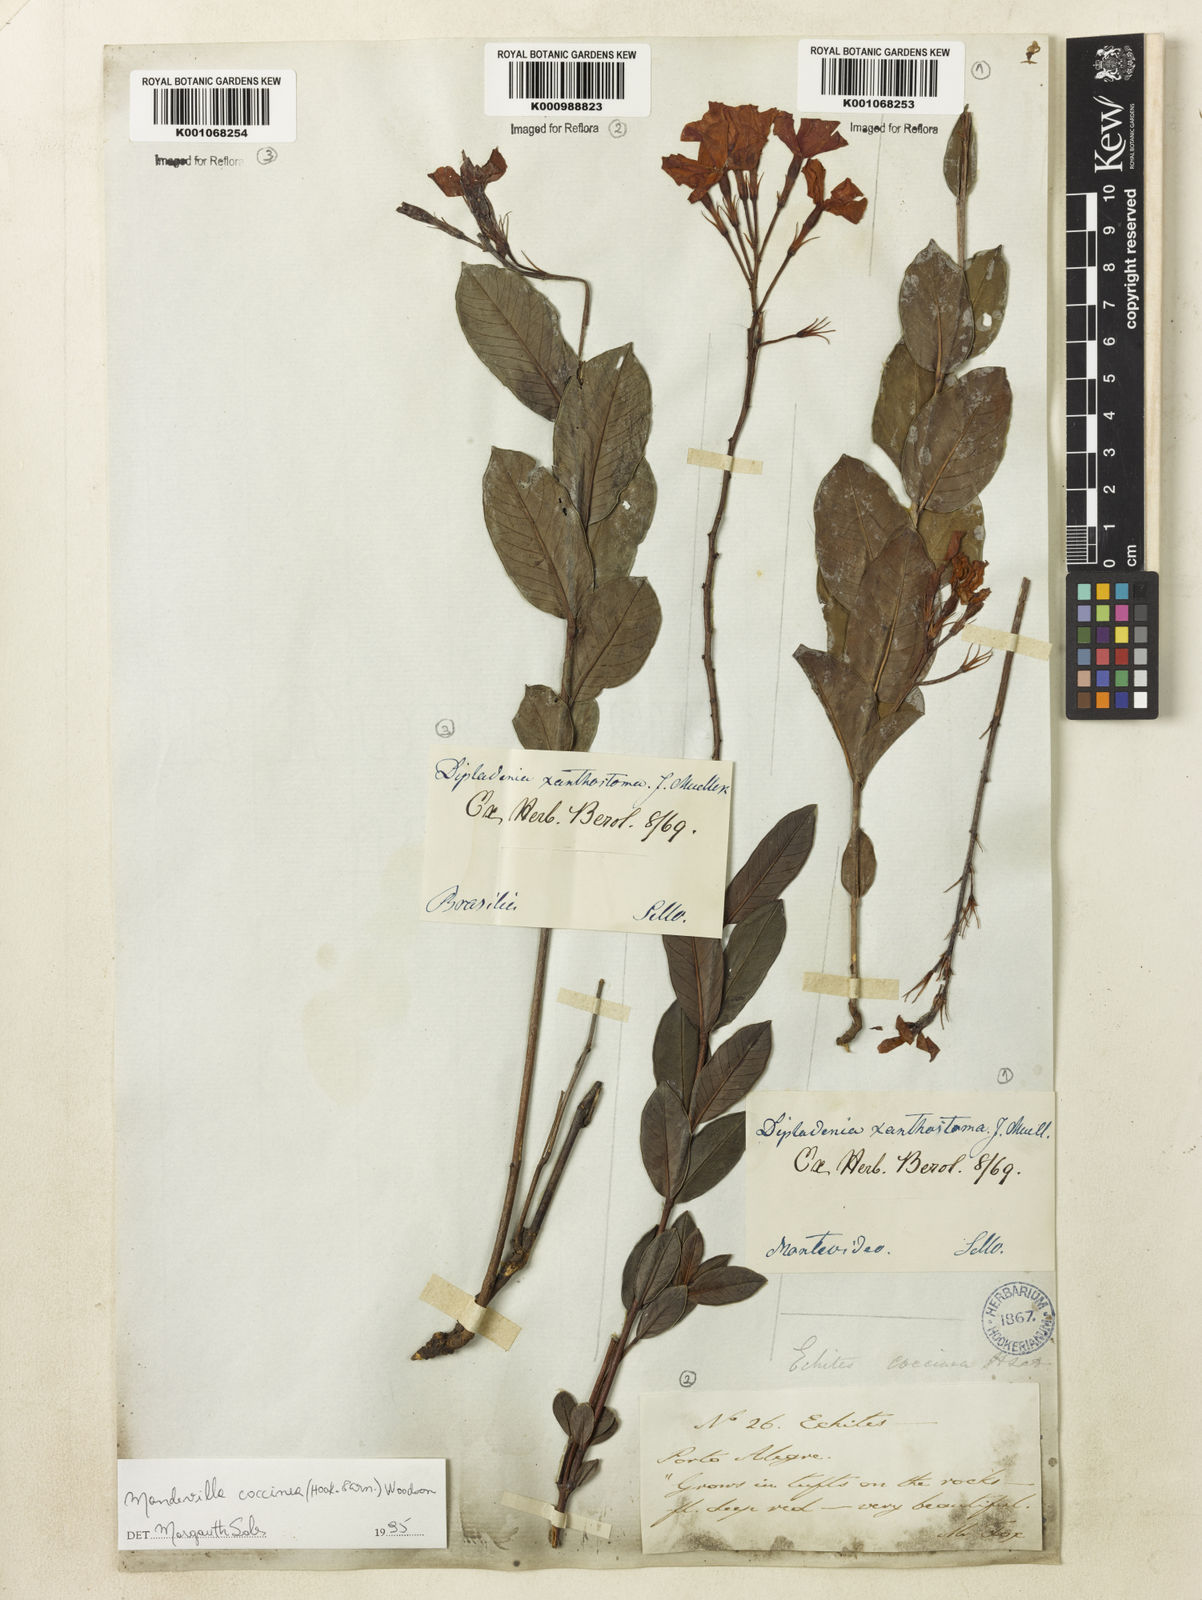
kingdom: Plantae
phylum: Tracheophyta
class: Magnoliopsida
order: Gentianales
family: Apocynaceae
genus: Mandevilla
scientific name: Mandevilla
